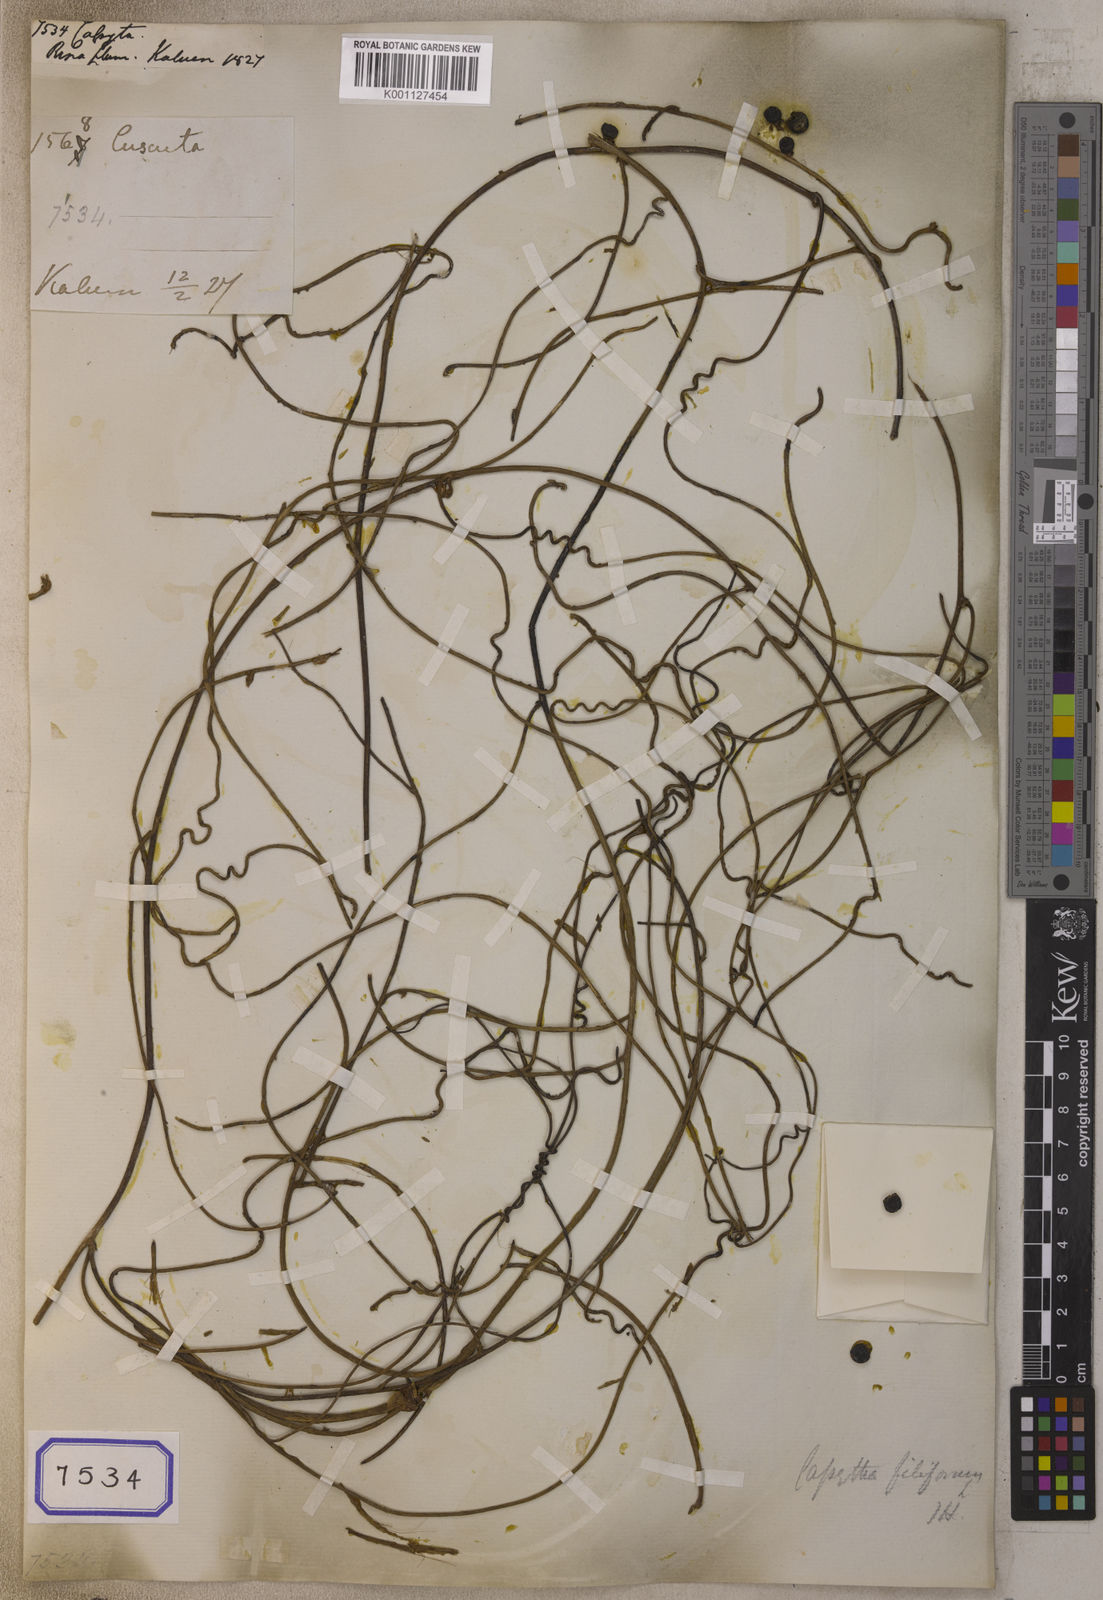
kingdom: Plantae
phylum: Tracheophyta
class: Magnoliopsida
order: Laurales
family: Lauraceae
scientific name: Lauraceae
